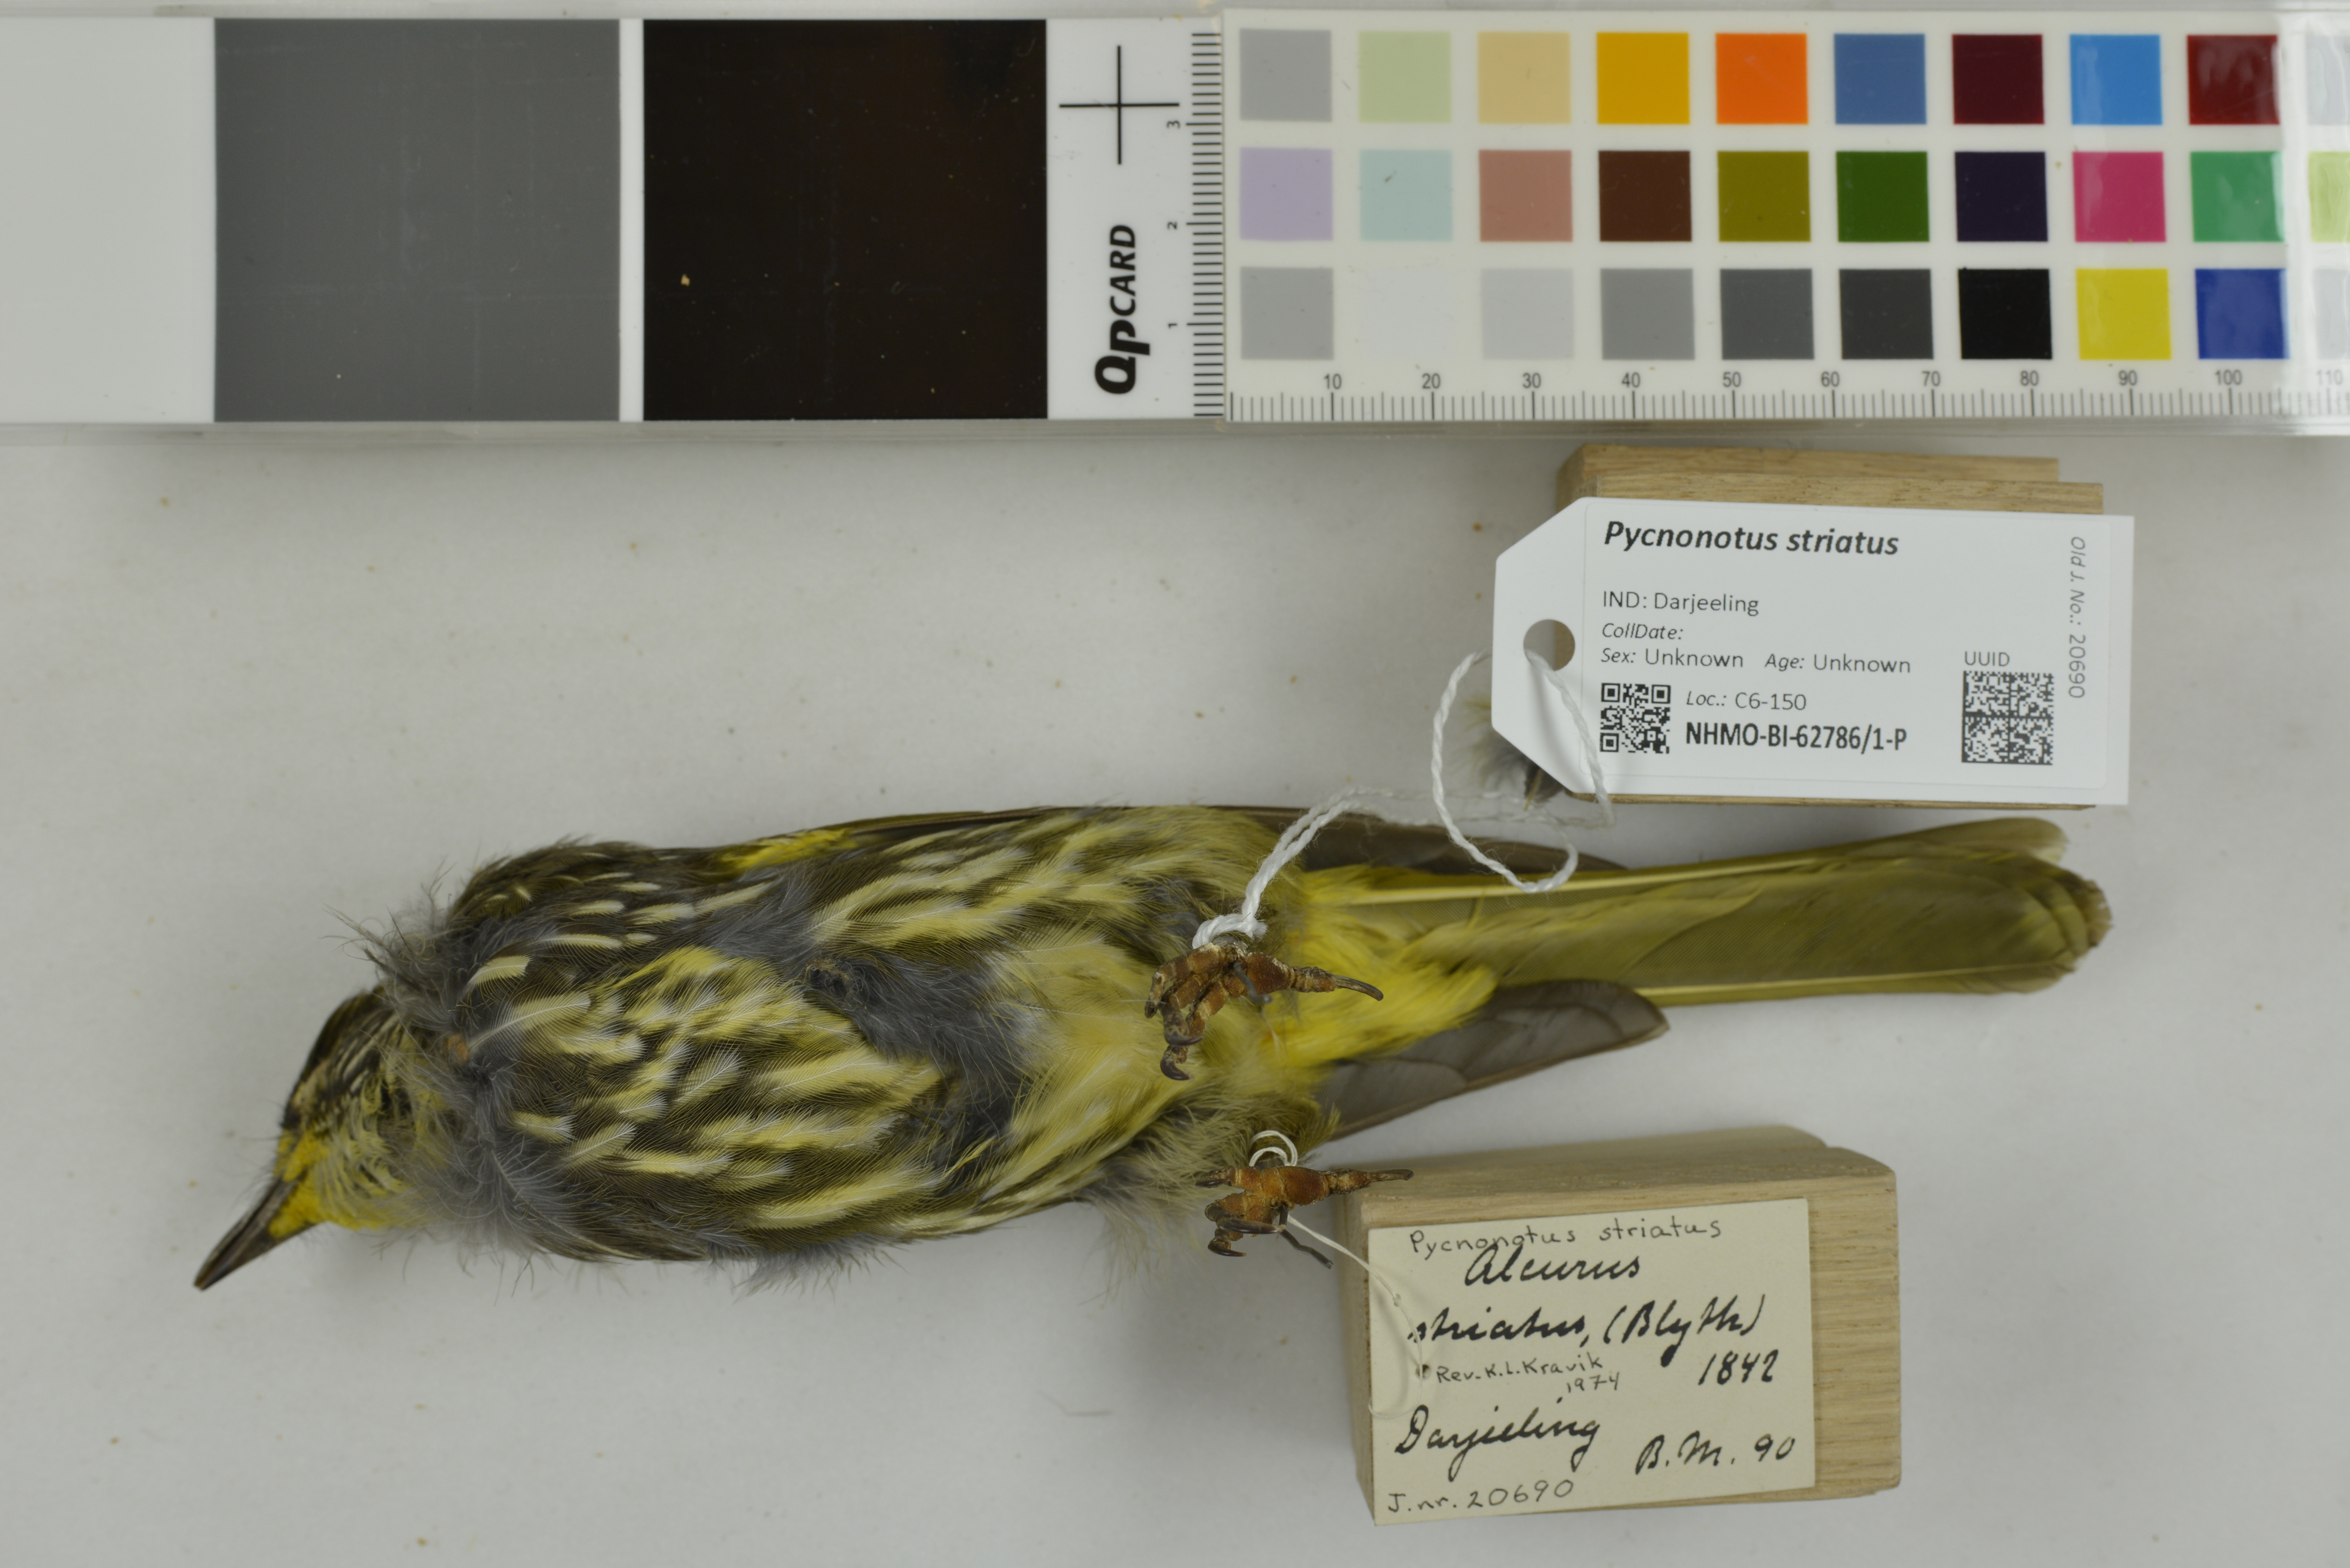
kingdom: Animalia
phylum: Chordata
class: Aves
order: Passeriformes
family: Pycnonotidae
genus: Pycnonotus
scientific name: Pycnonotus striatus
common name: Striated bulbul
